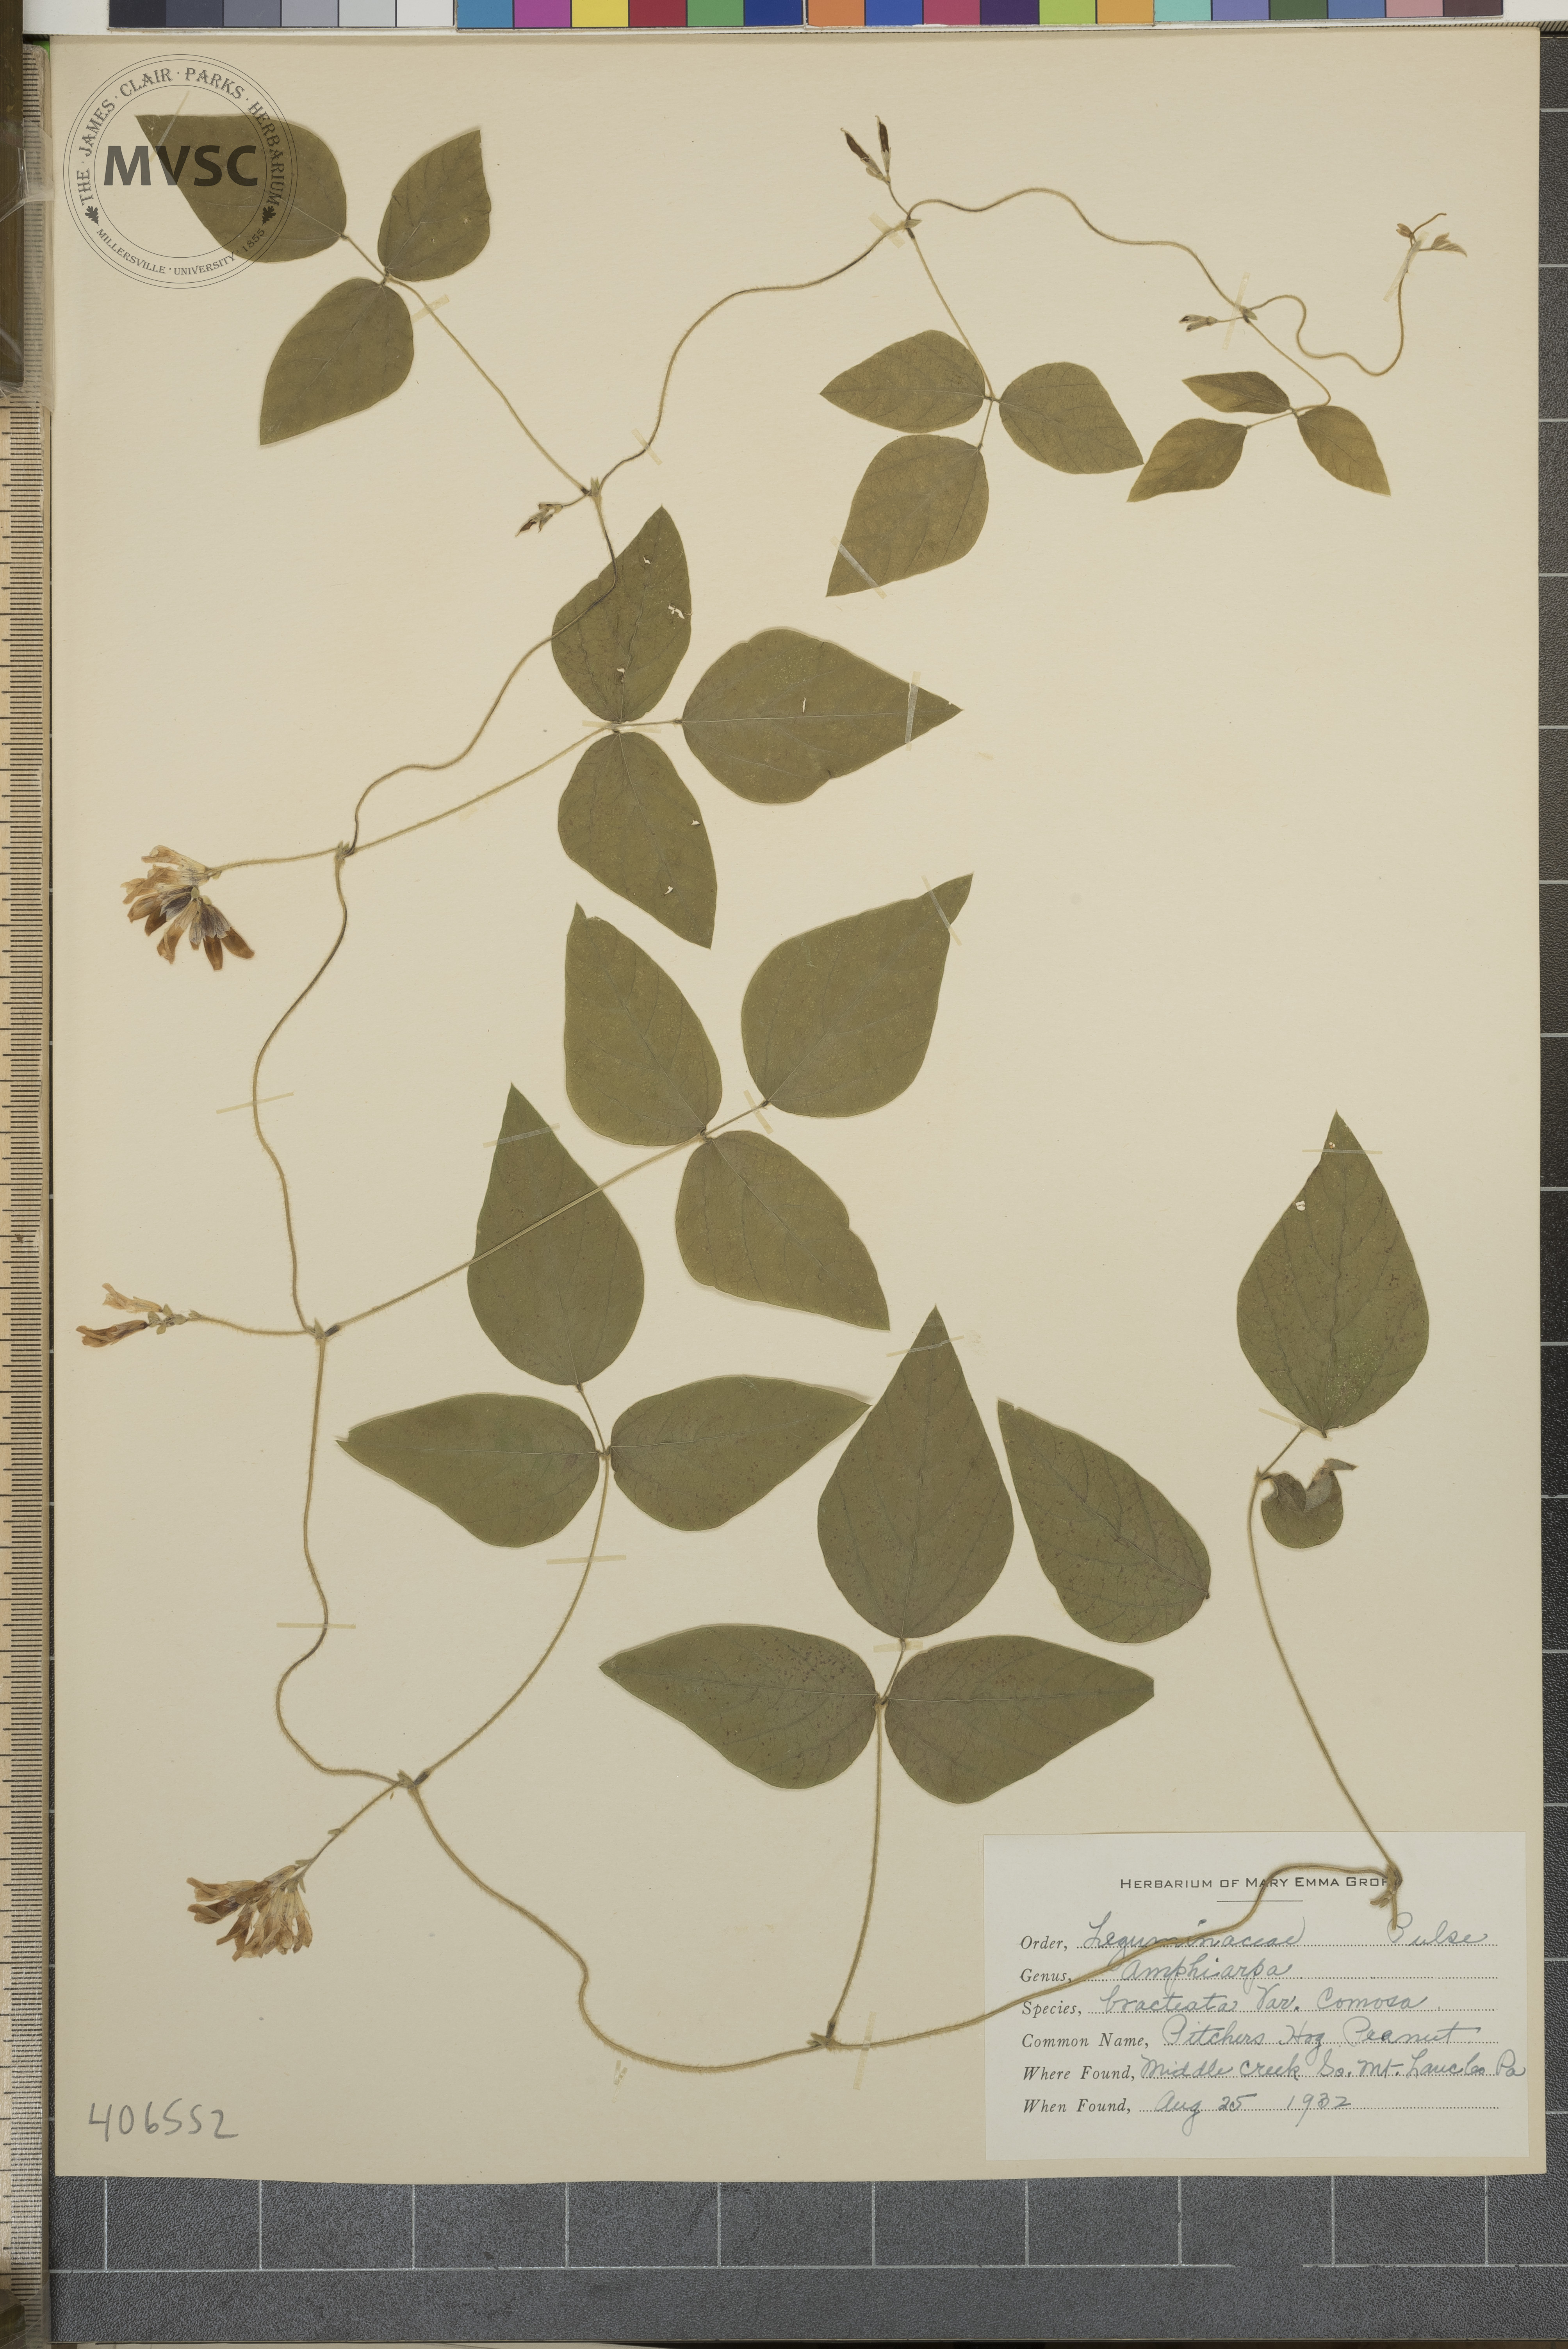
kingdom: Plantae
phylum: Tracheophyta
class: Magnoliopsida
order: Fabales
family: Fabaceae
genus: Amphicarpaea
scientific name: Amphicarpaea bracteata
